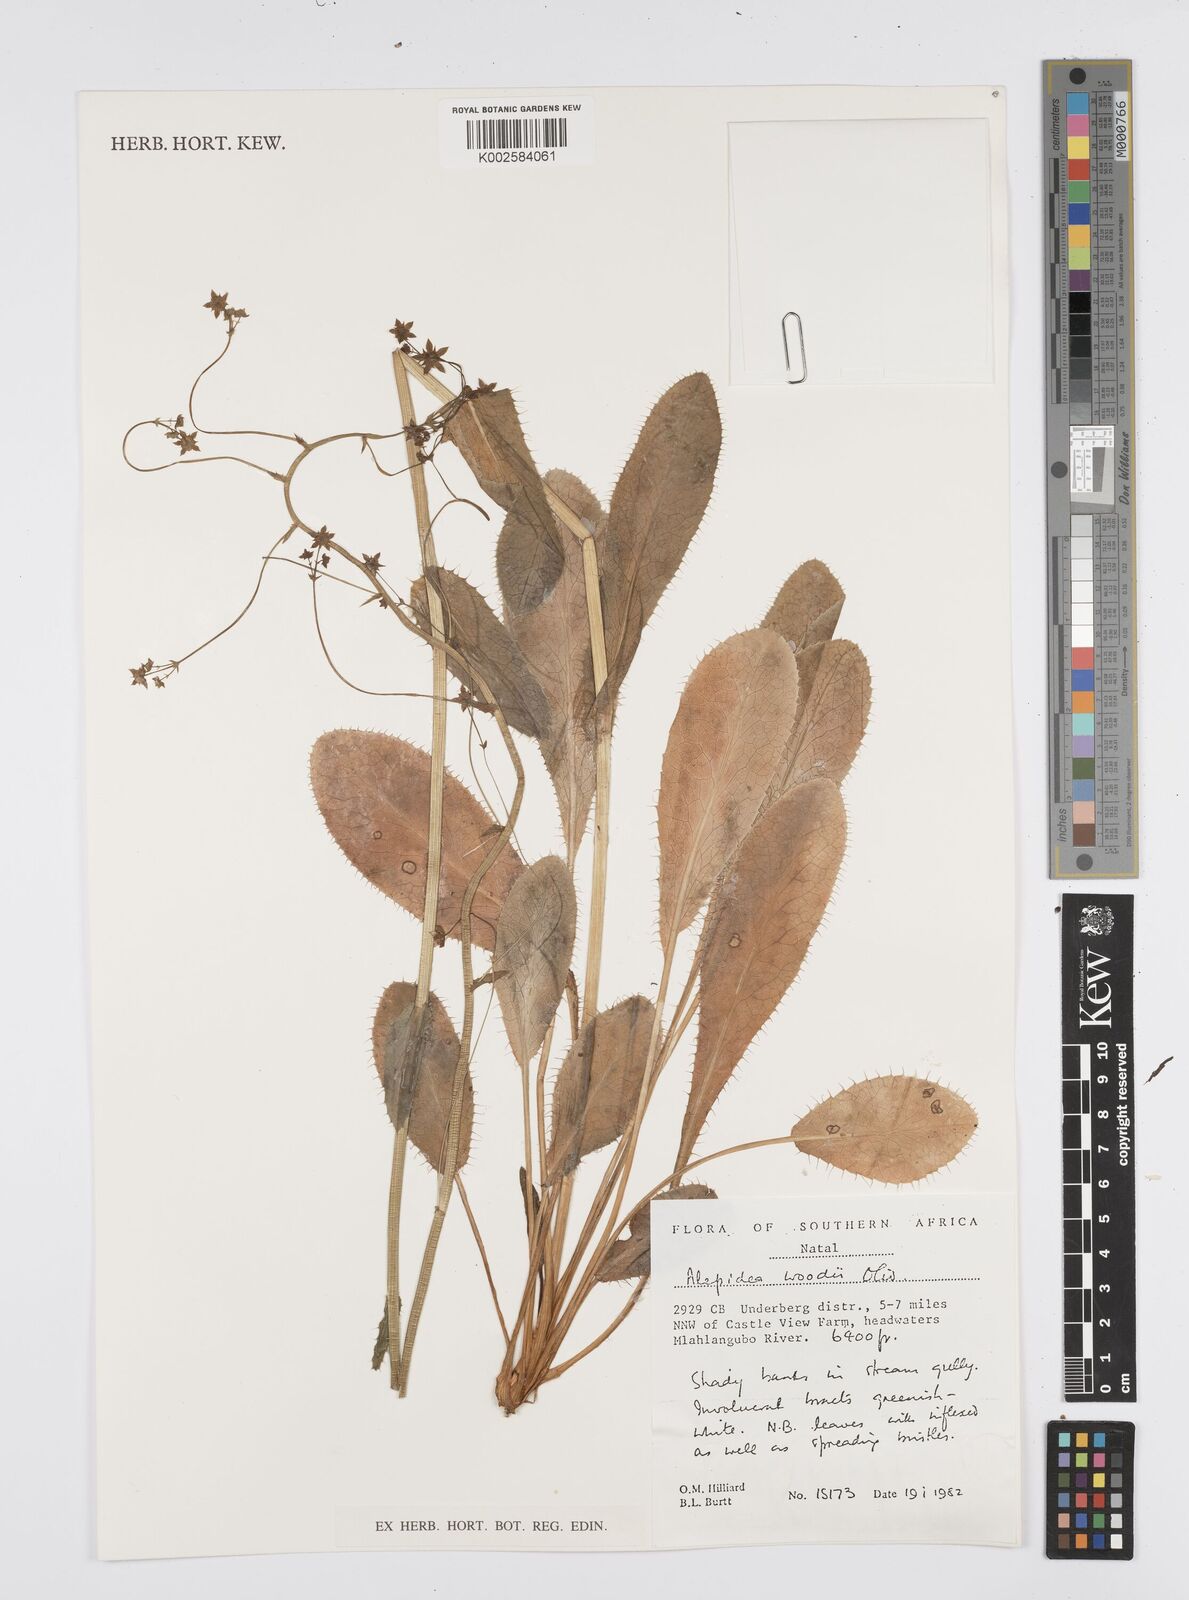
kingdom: Plantae
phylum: Tracheophyta
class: Magnoliopsida
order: Apiales
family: Apiaceae
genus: Alepidea
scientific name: Alepidea woodii
